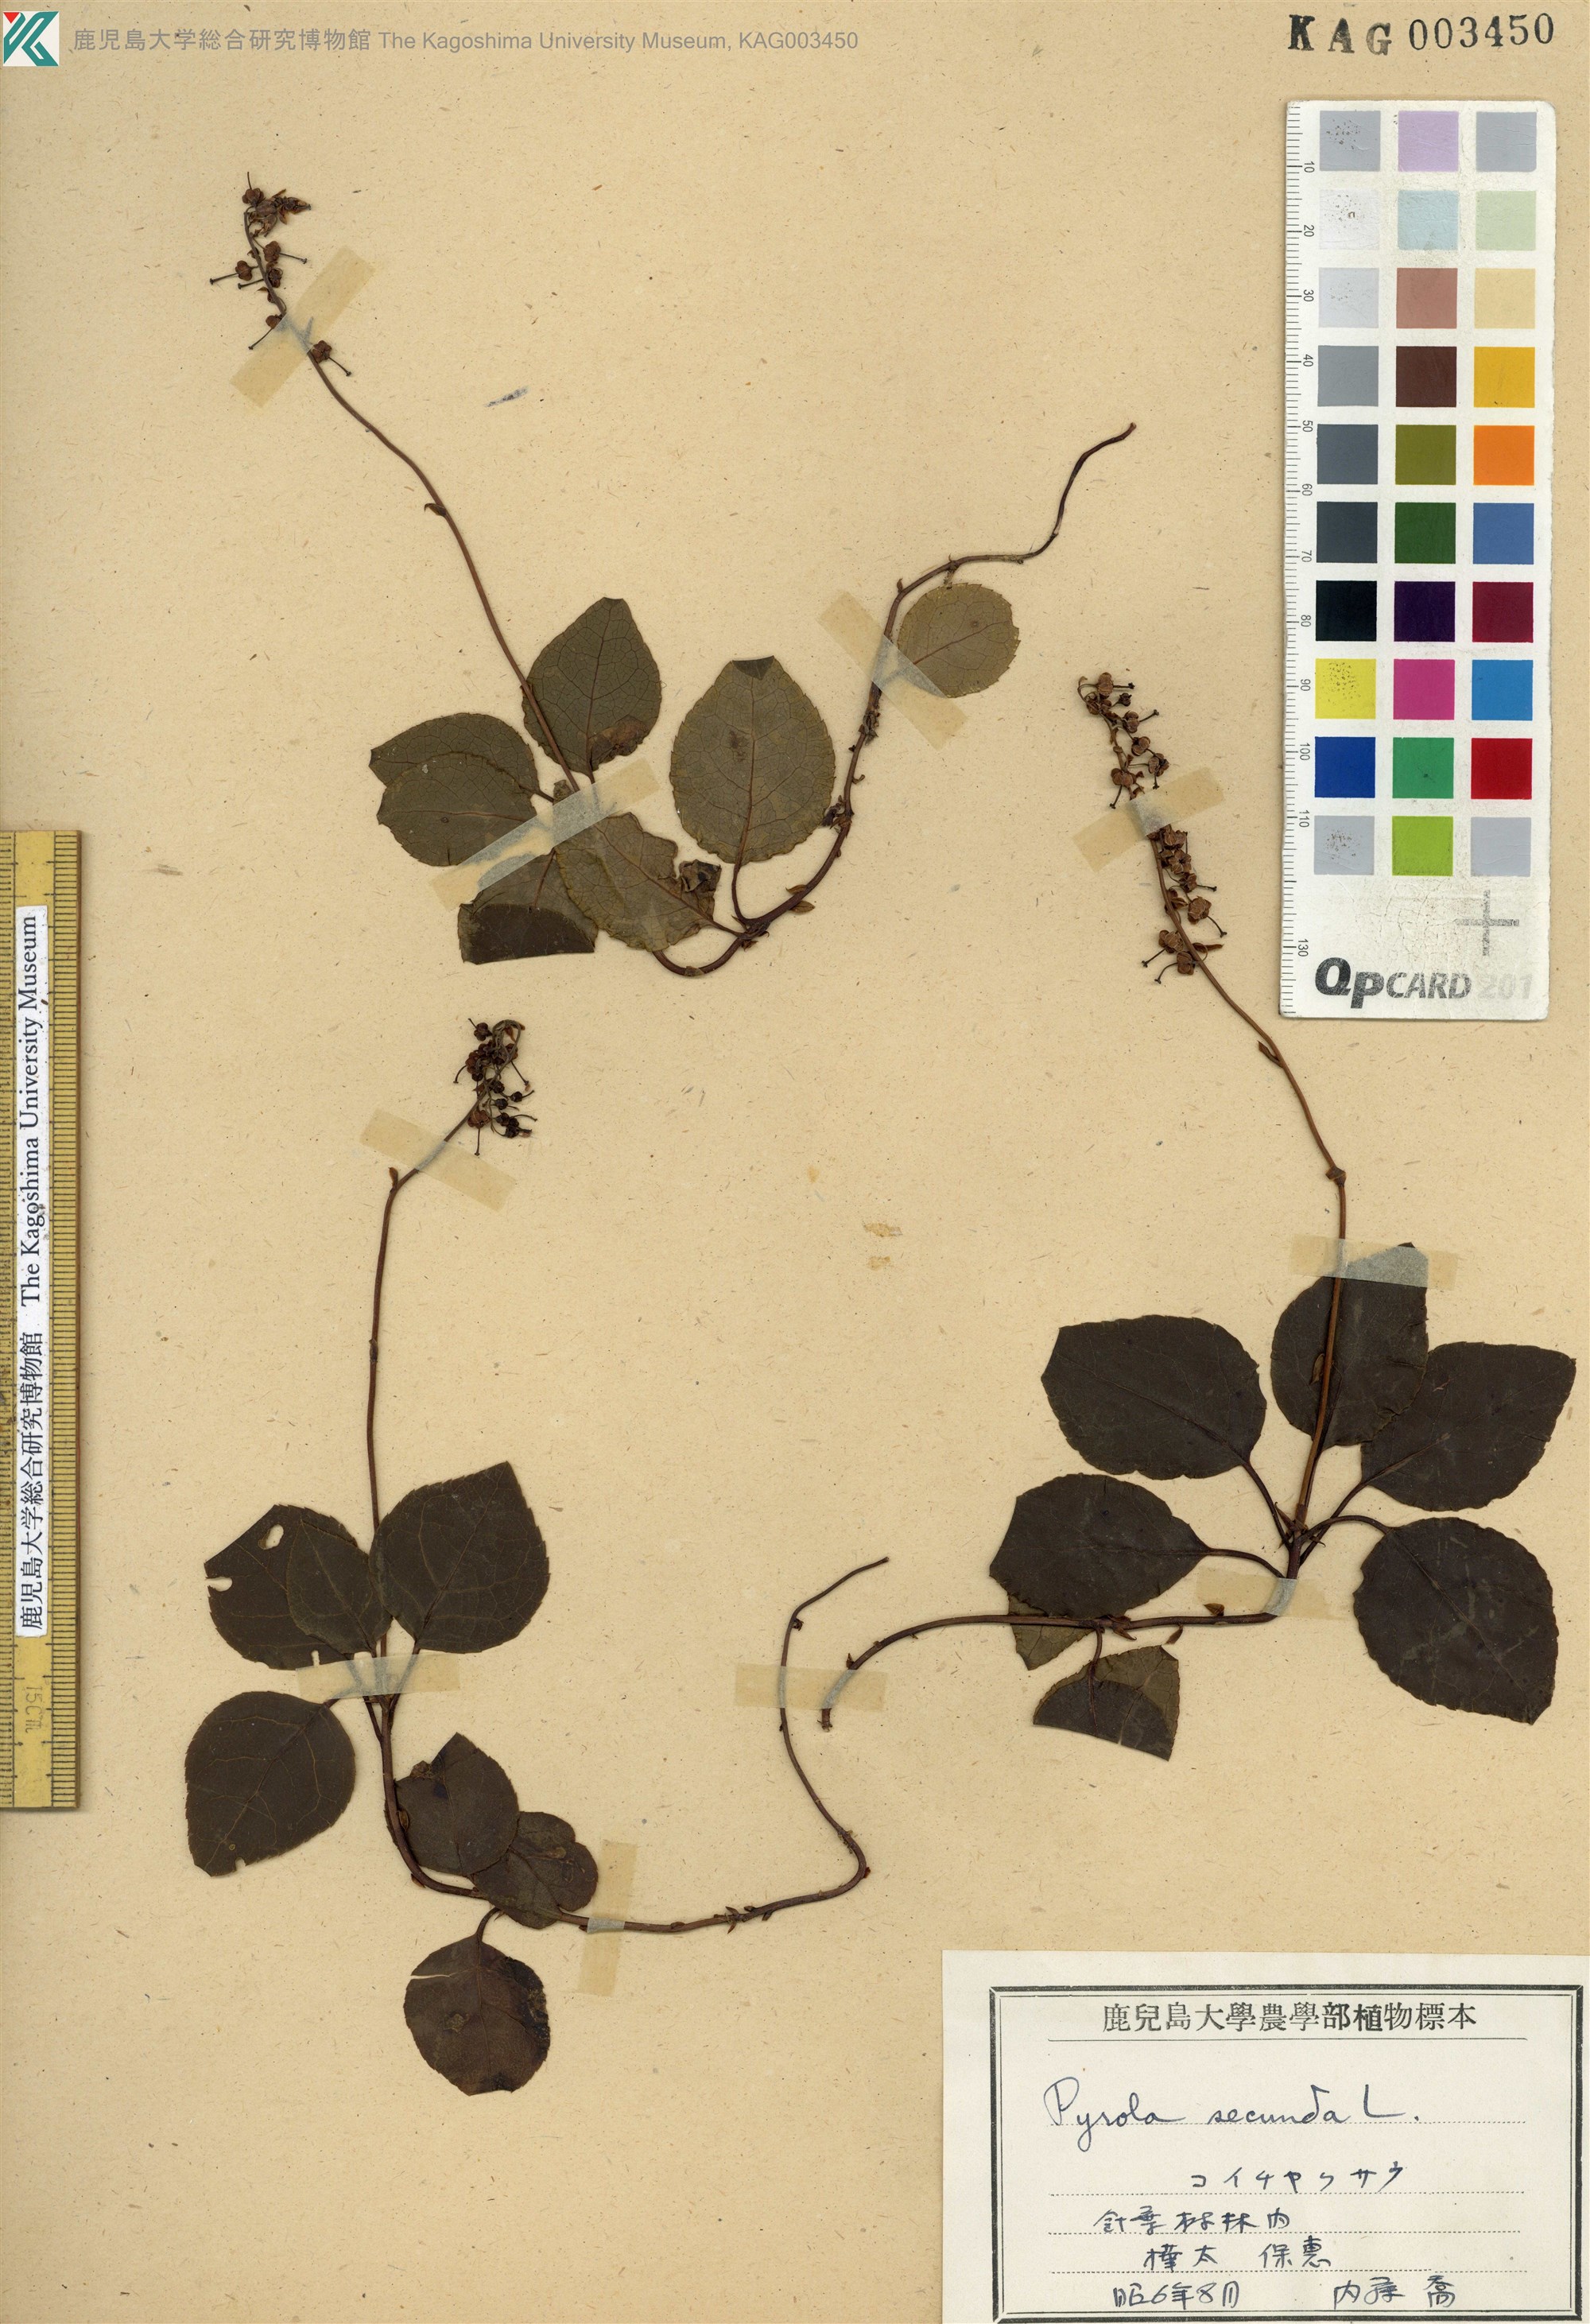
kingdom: Plantae
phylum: Tracheophyta
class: Magnoliopsida
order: Ericales
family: Ericaceae
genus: Orthilia
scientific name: Orthilia secunda
